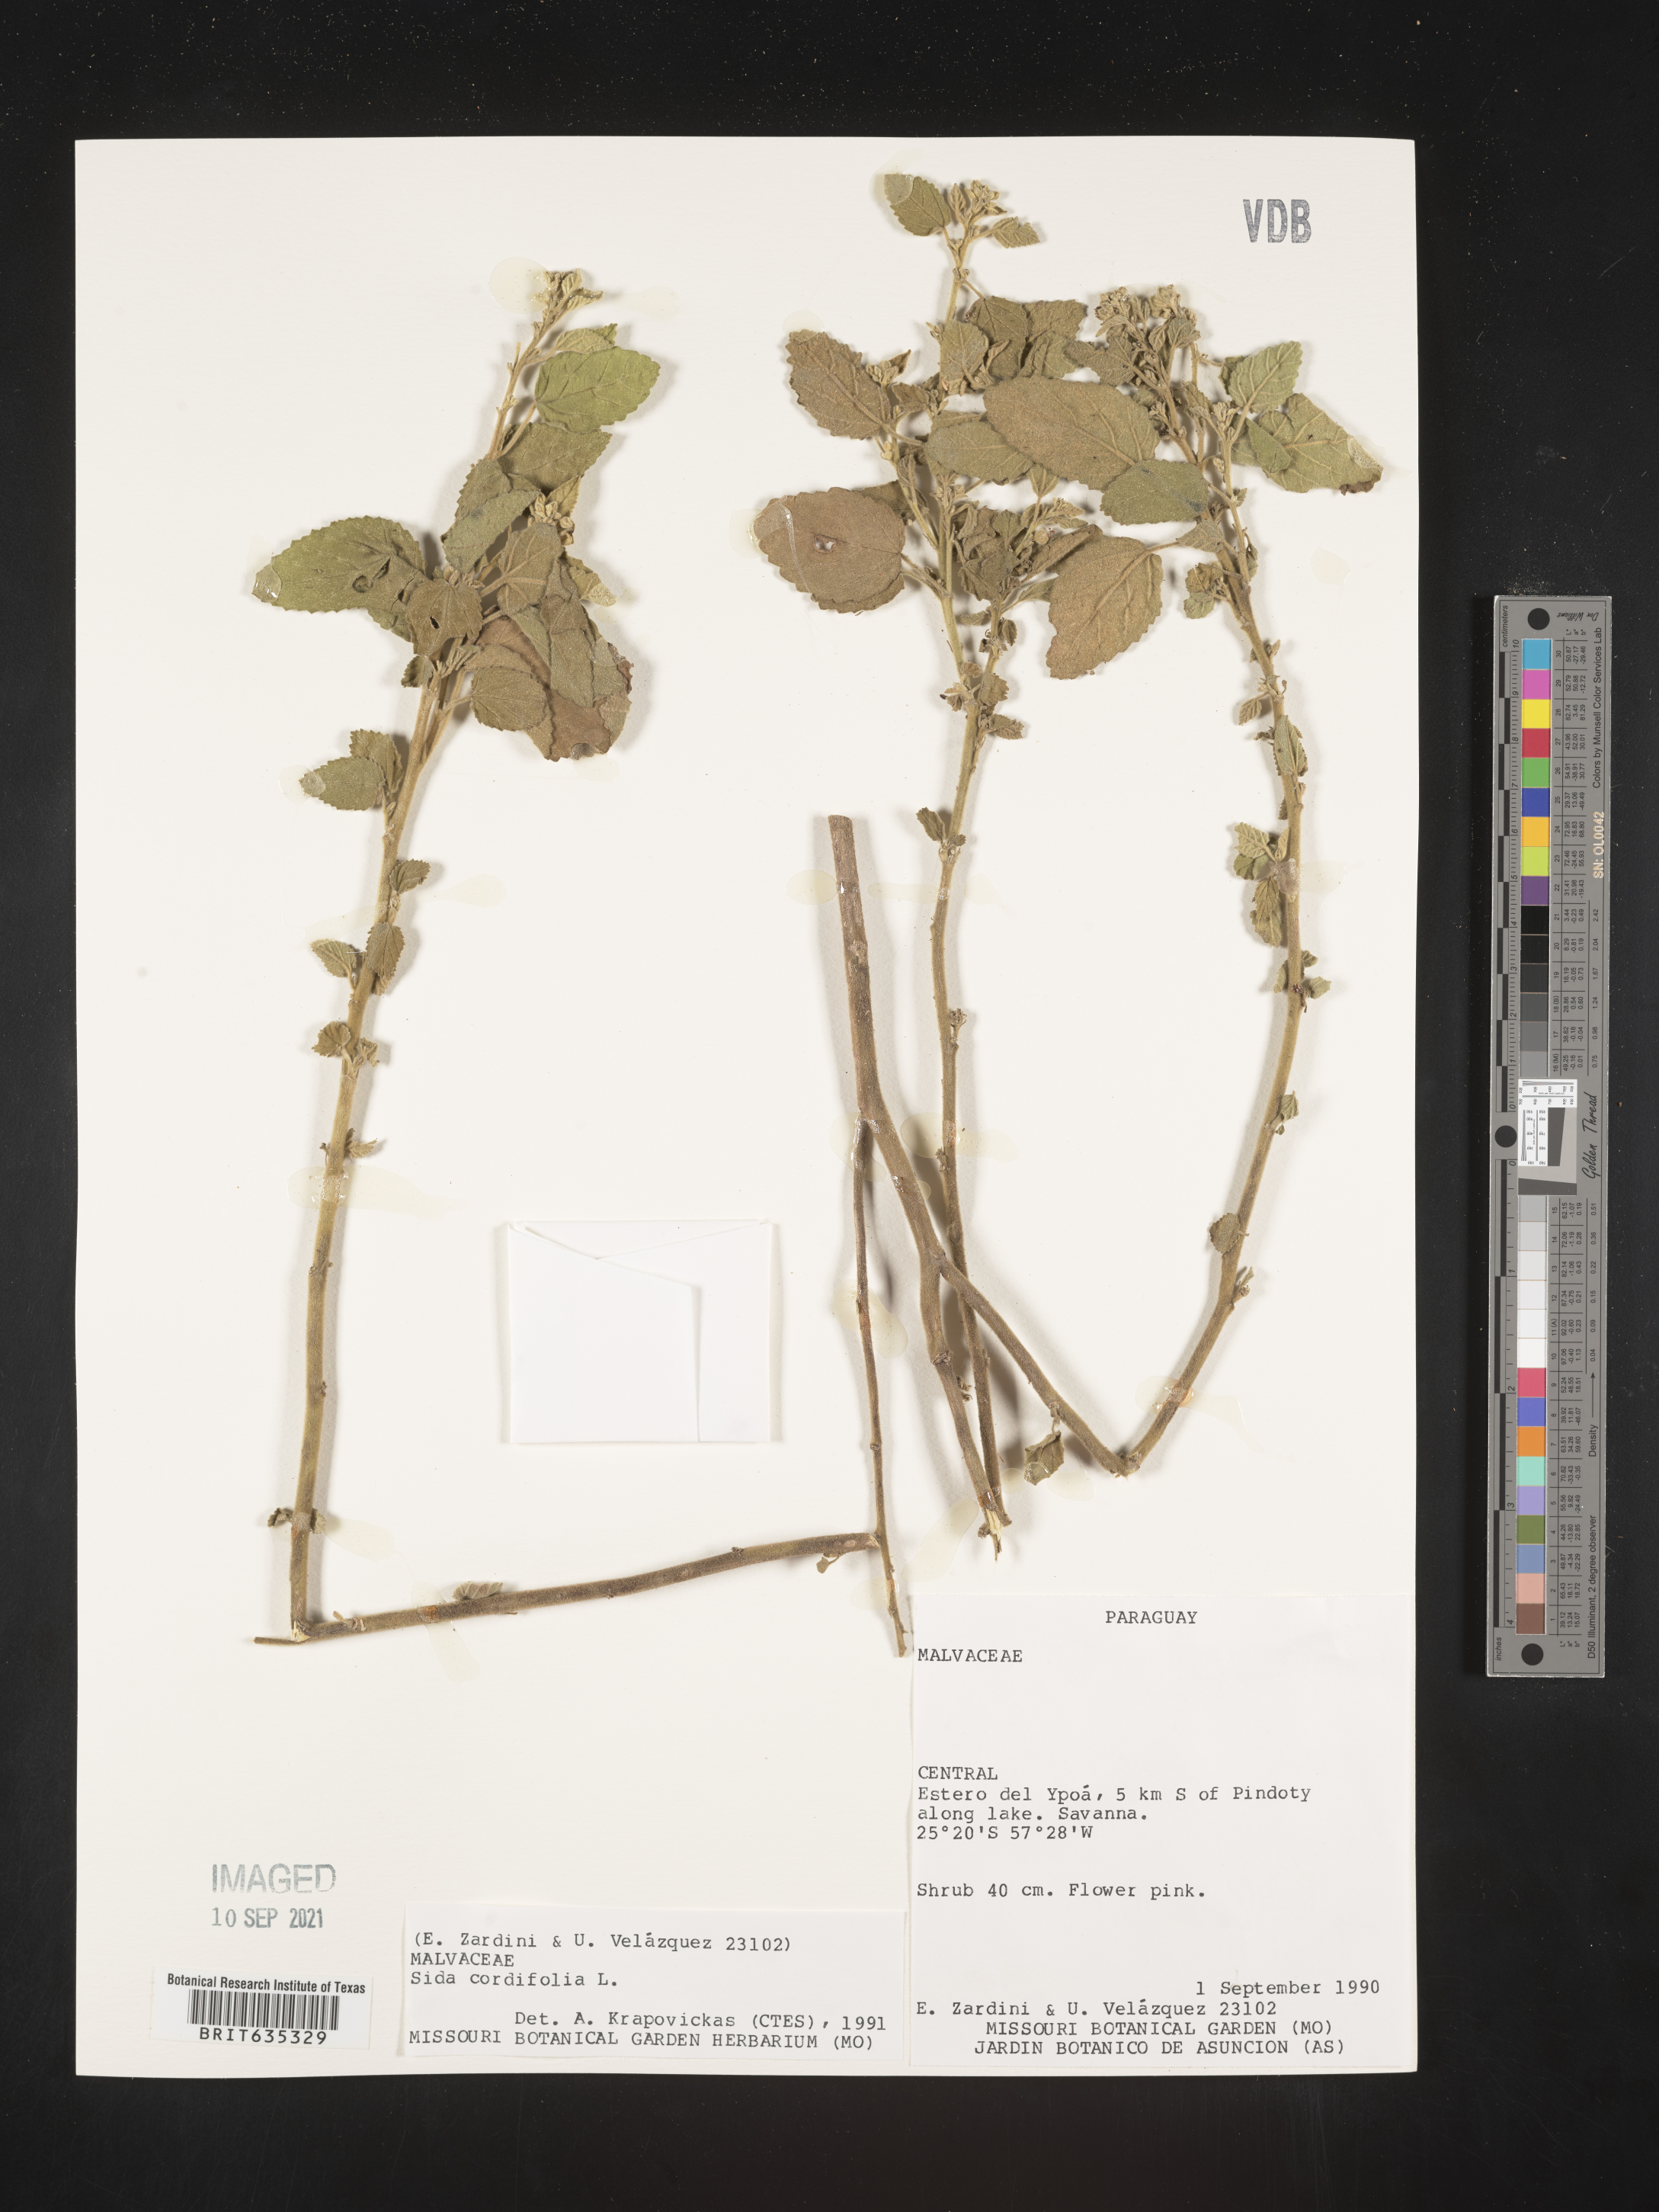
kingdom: Plantae
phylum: Tracheophyta
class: Magnoliopsida
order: Malvales
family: Malvaceae
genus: Sida
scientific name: Sida
